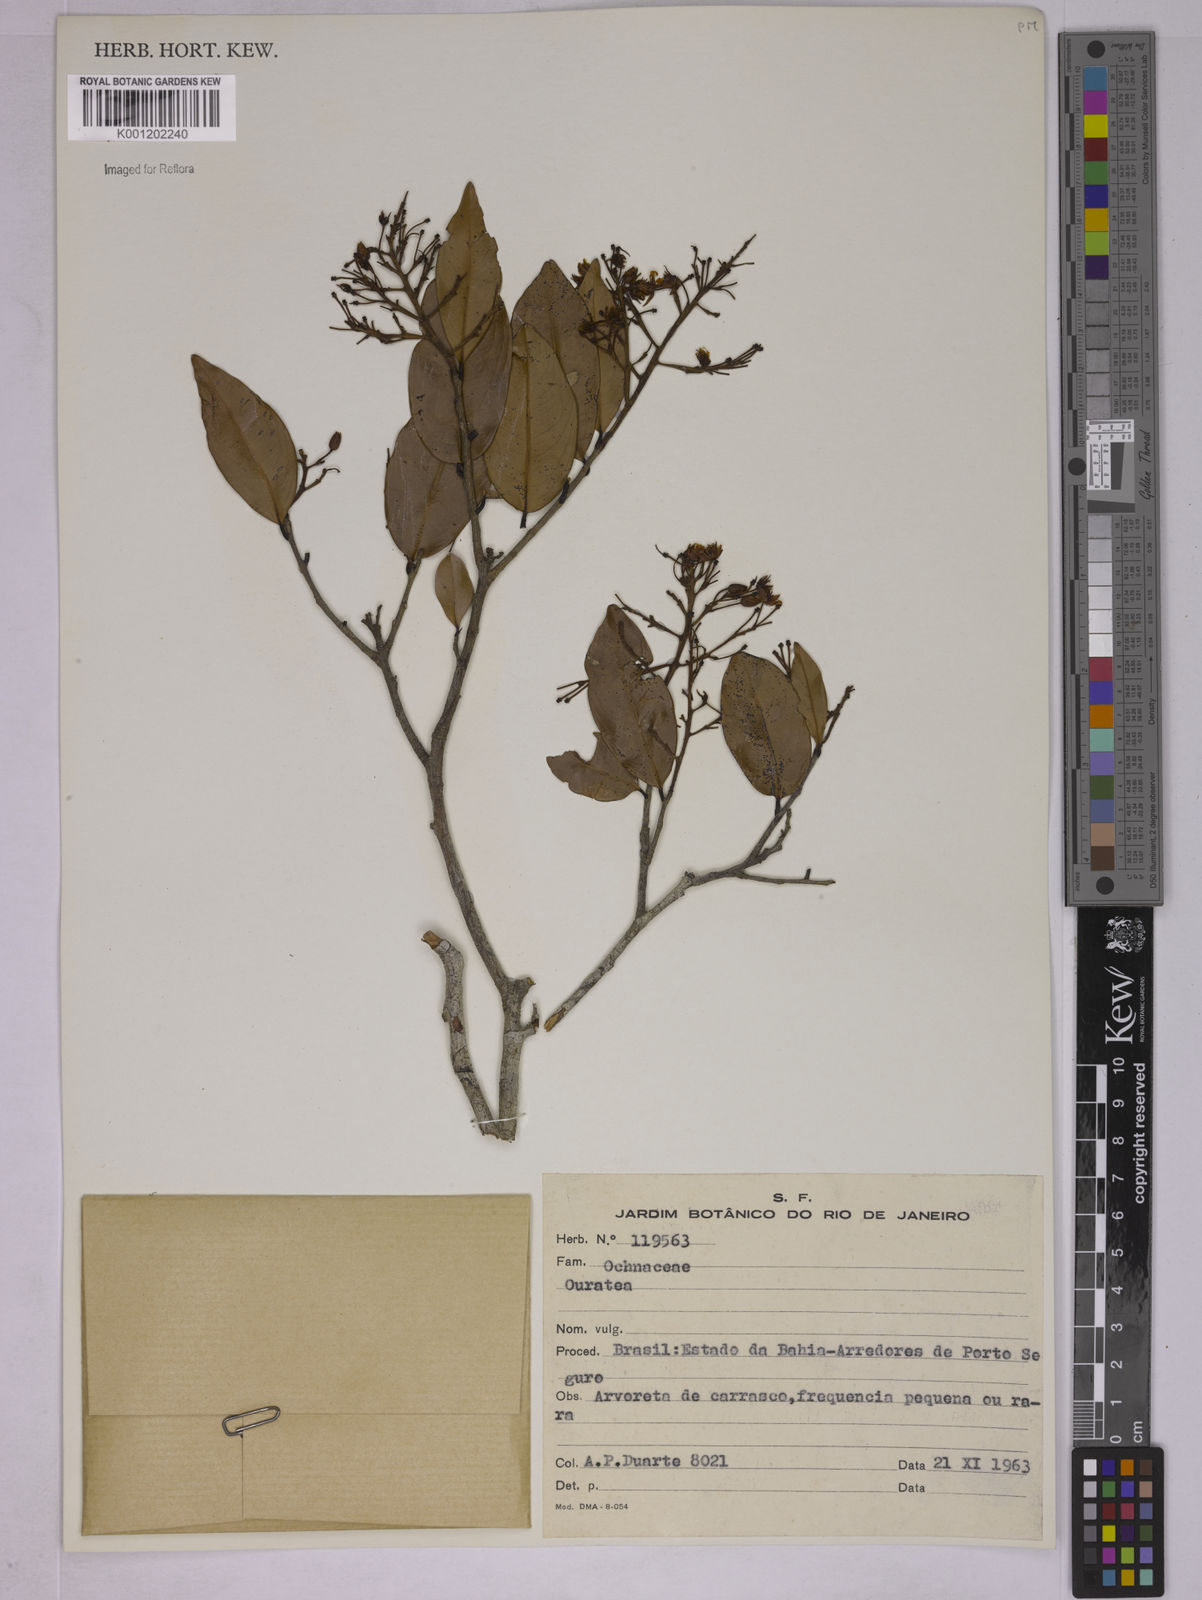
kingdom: Plantae
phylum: Tracheophyta
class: Magnoliopsida
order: Malpighiales
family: Ochnaceae
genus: Ouratea
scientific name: Ouratea
